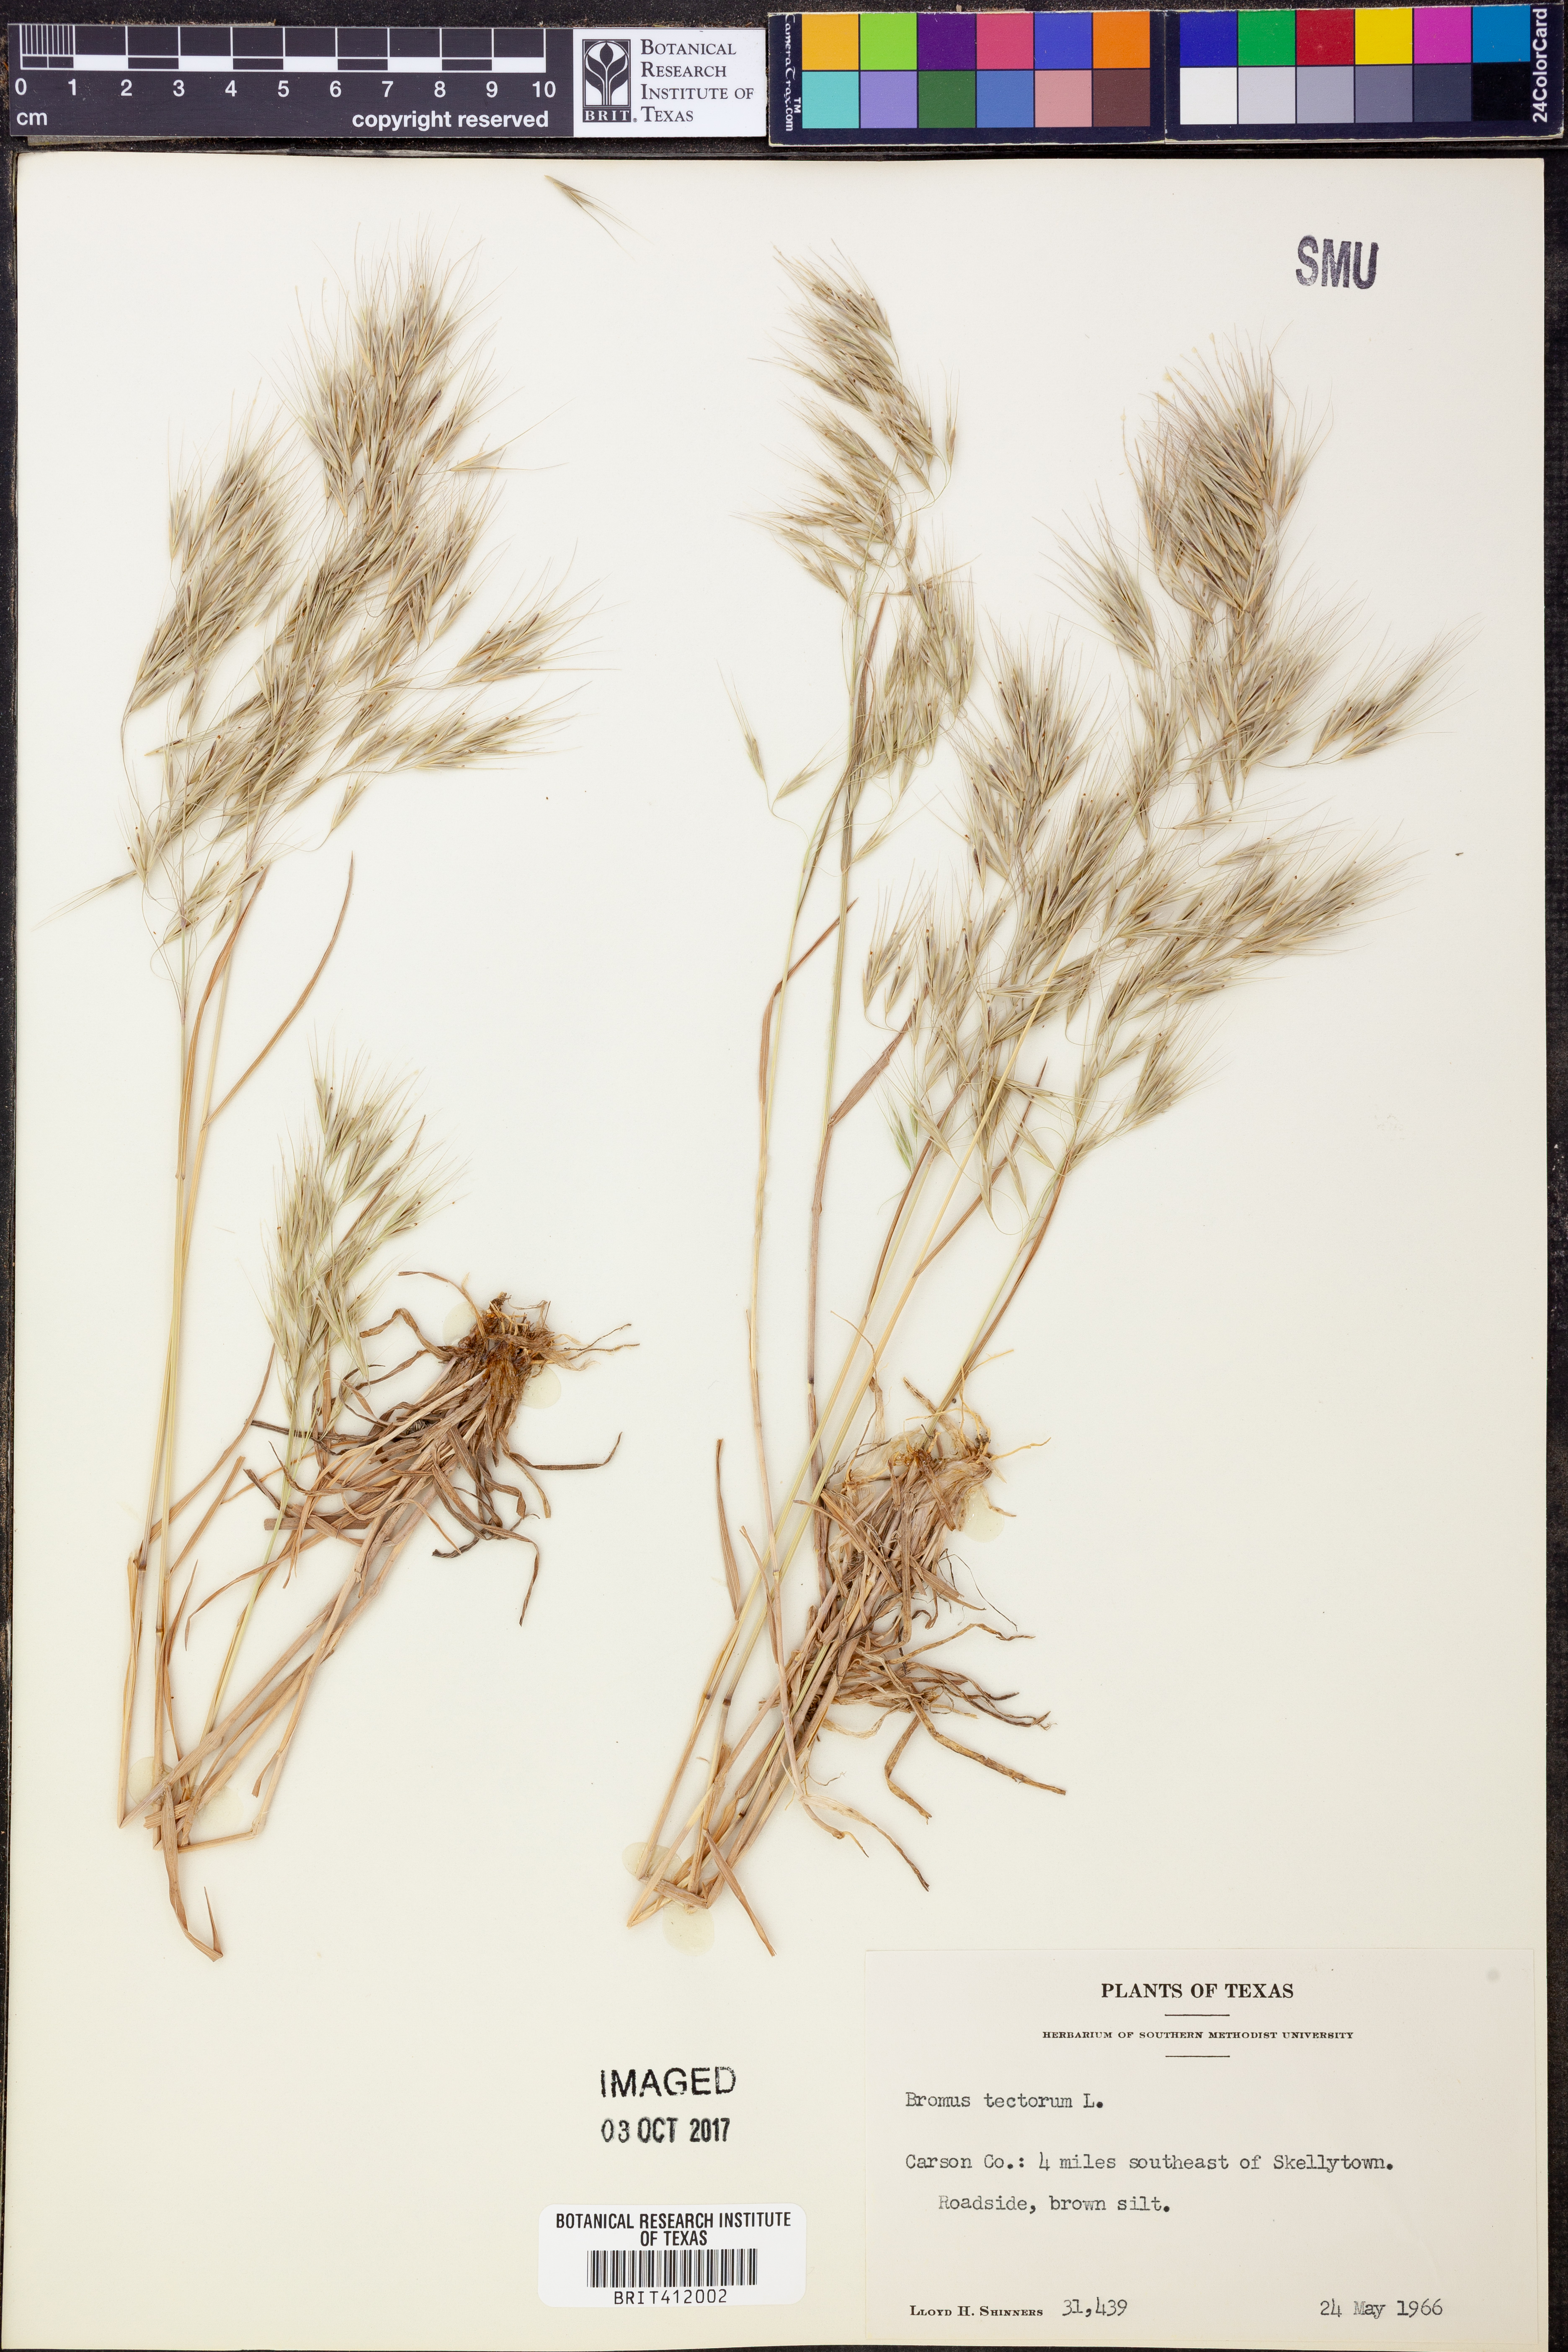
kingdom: Plantae
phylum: Tracheophyta
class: Liliopsida
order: Poales
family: Poaceae
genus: Bromus
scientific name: Bromus tectorum
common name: Cheatgrass
